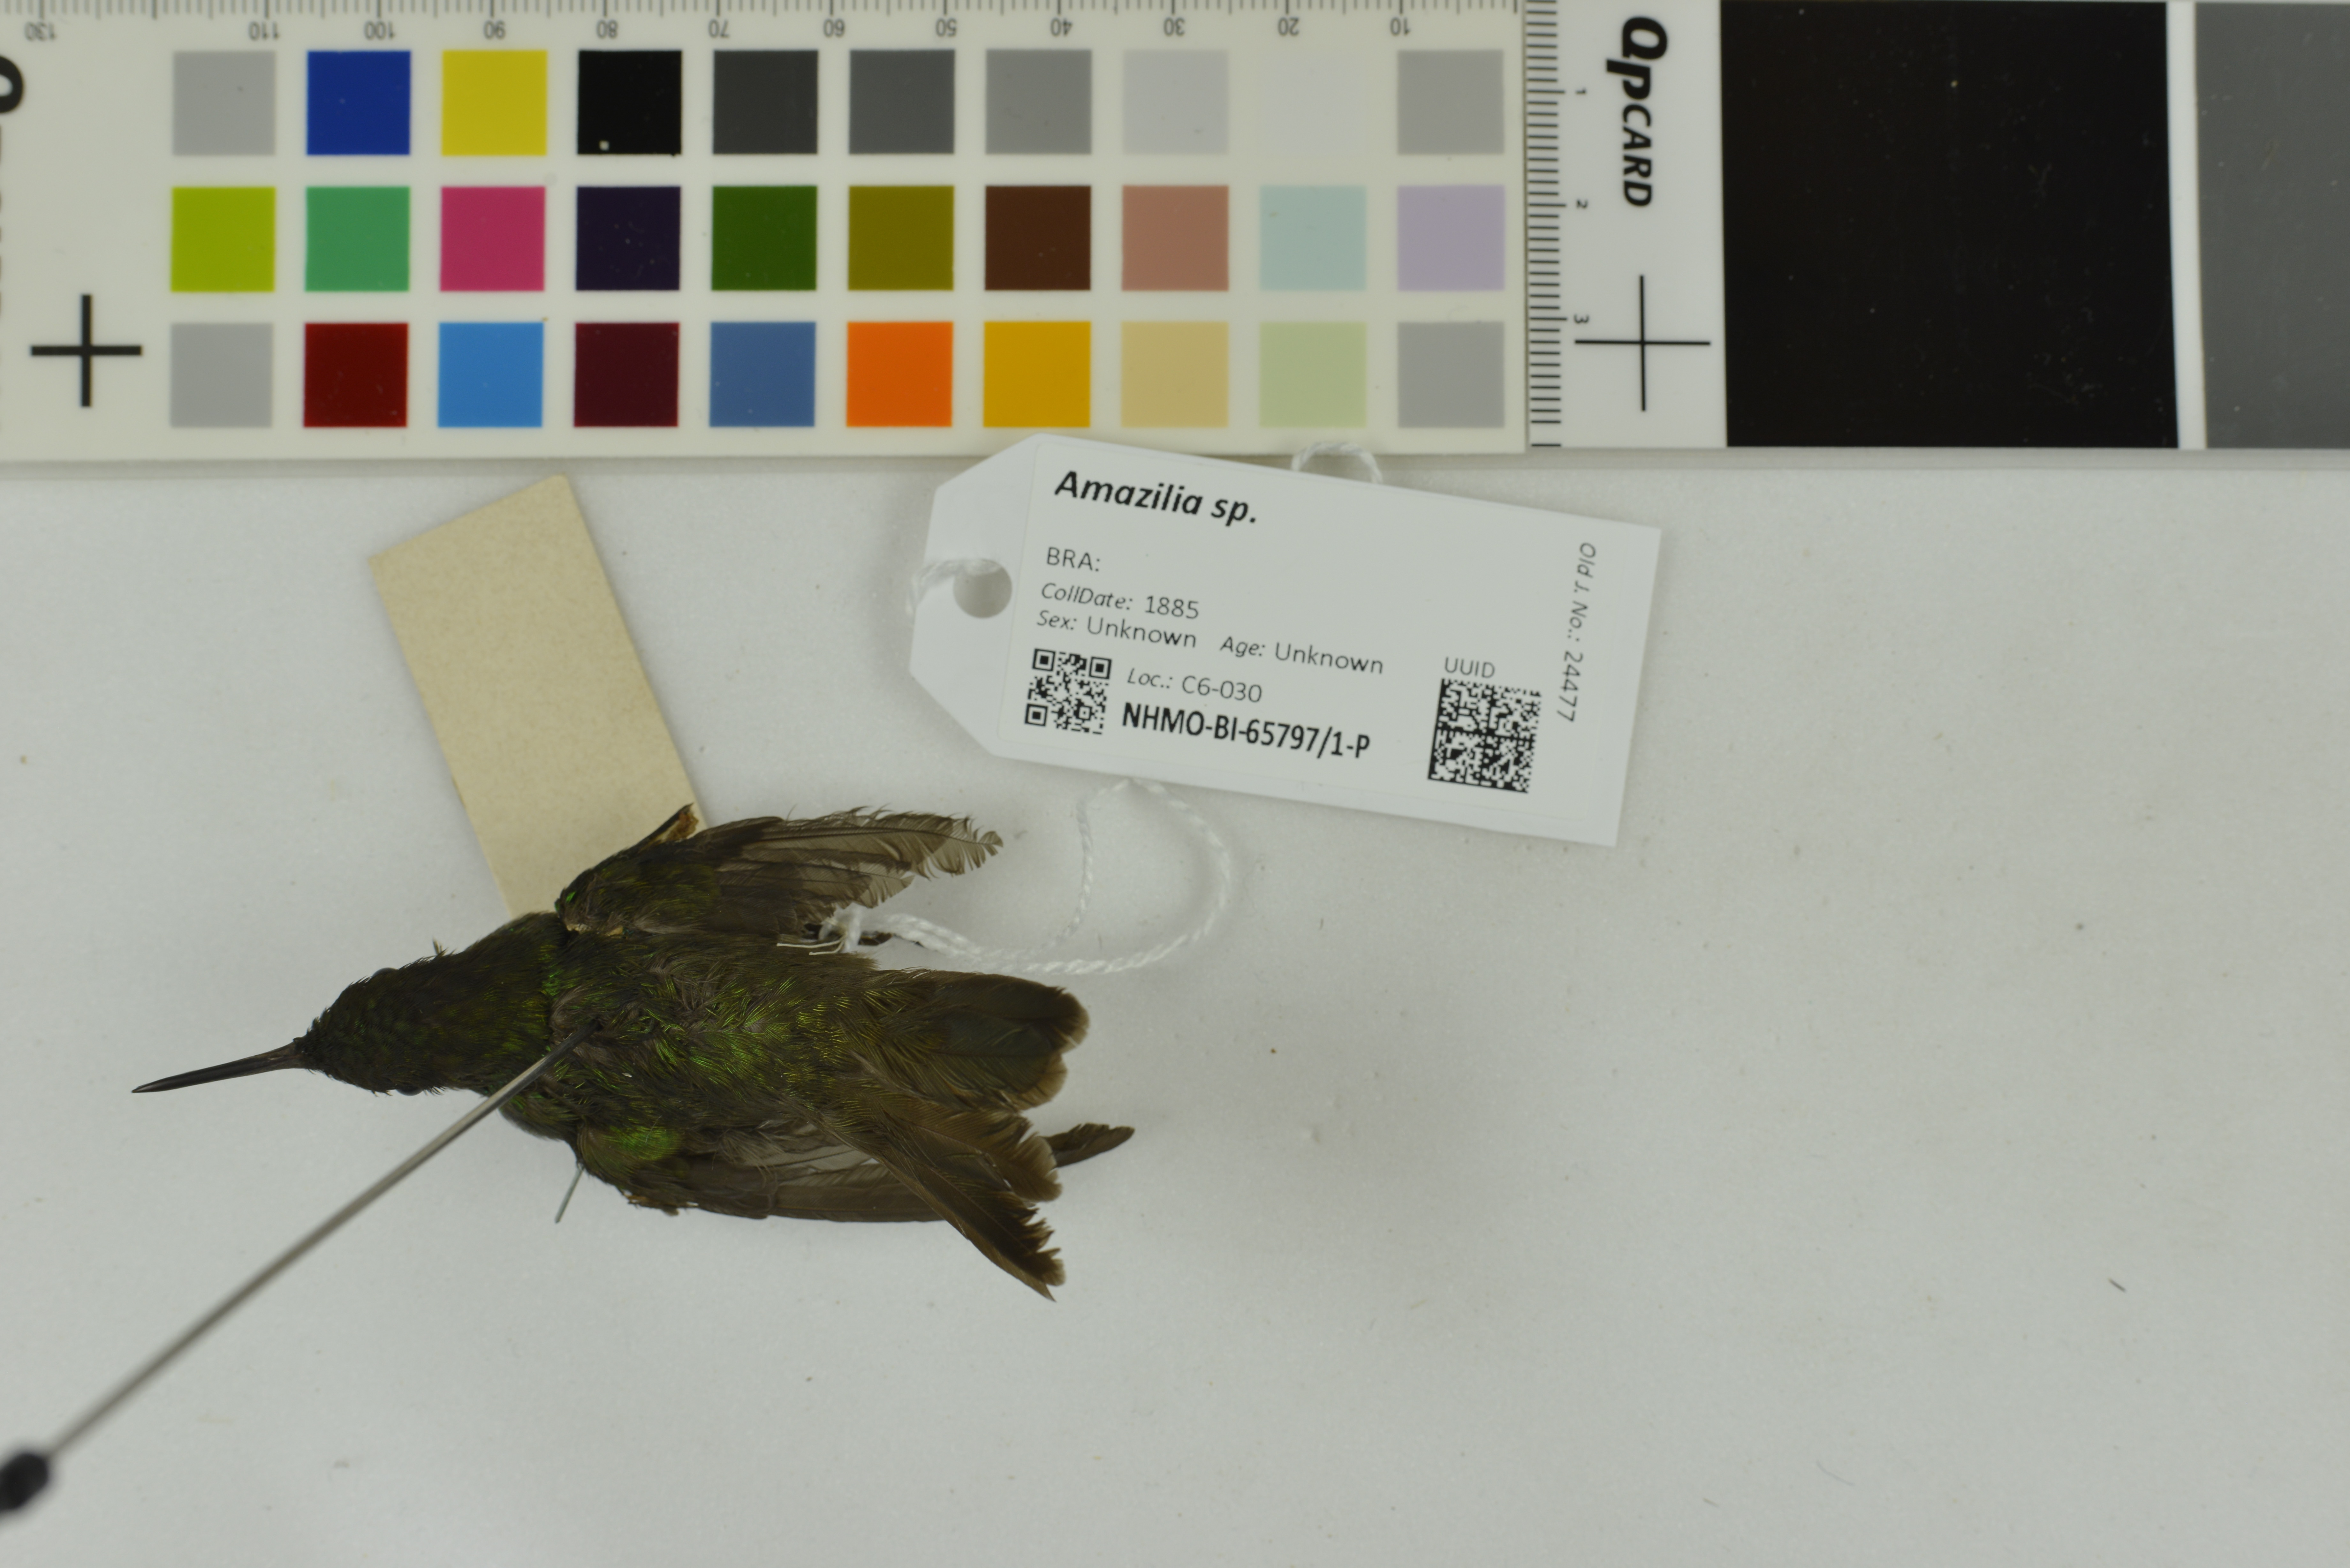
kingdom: Animalia
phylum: Chordata
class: Aves
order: Apodiformes
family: Trochilidae
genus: Amazilia
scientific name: Amazilia
